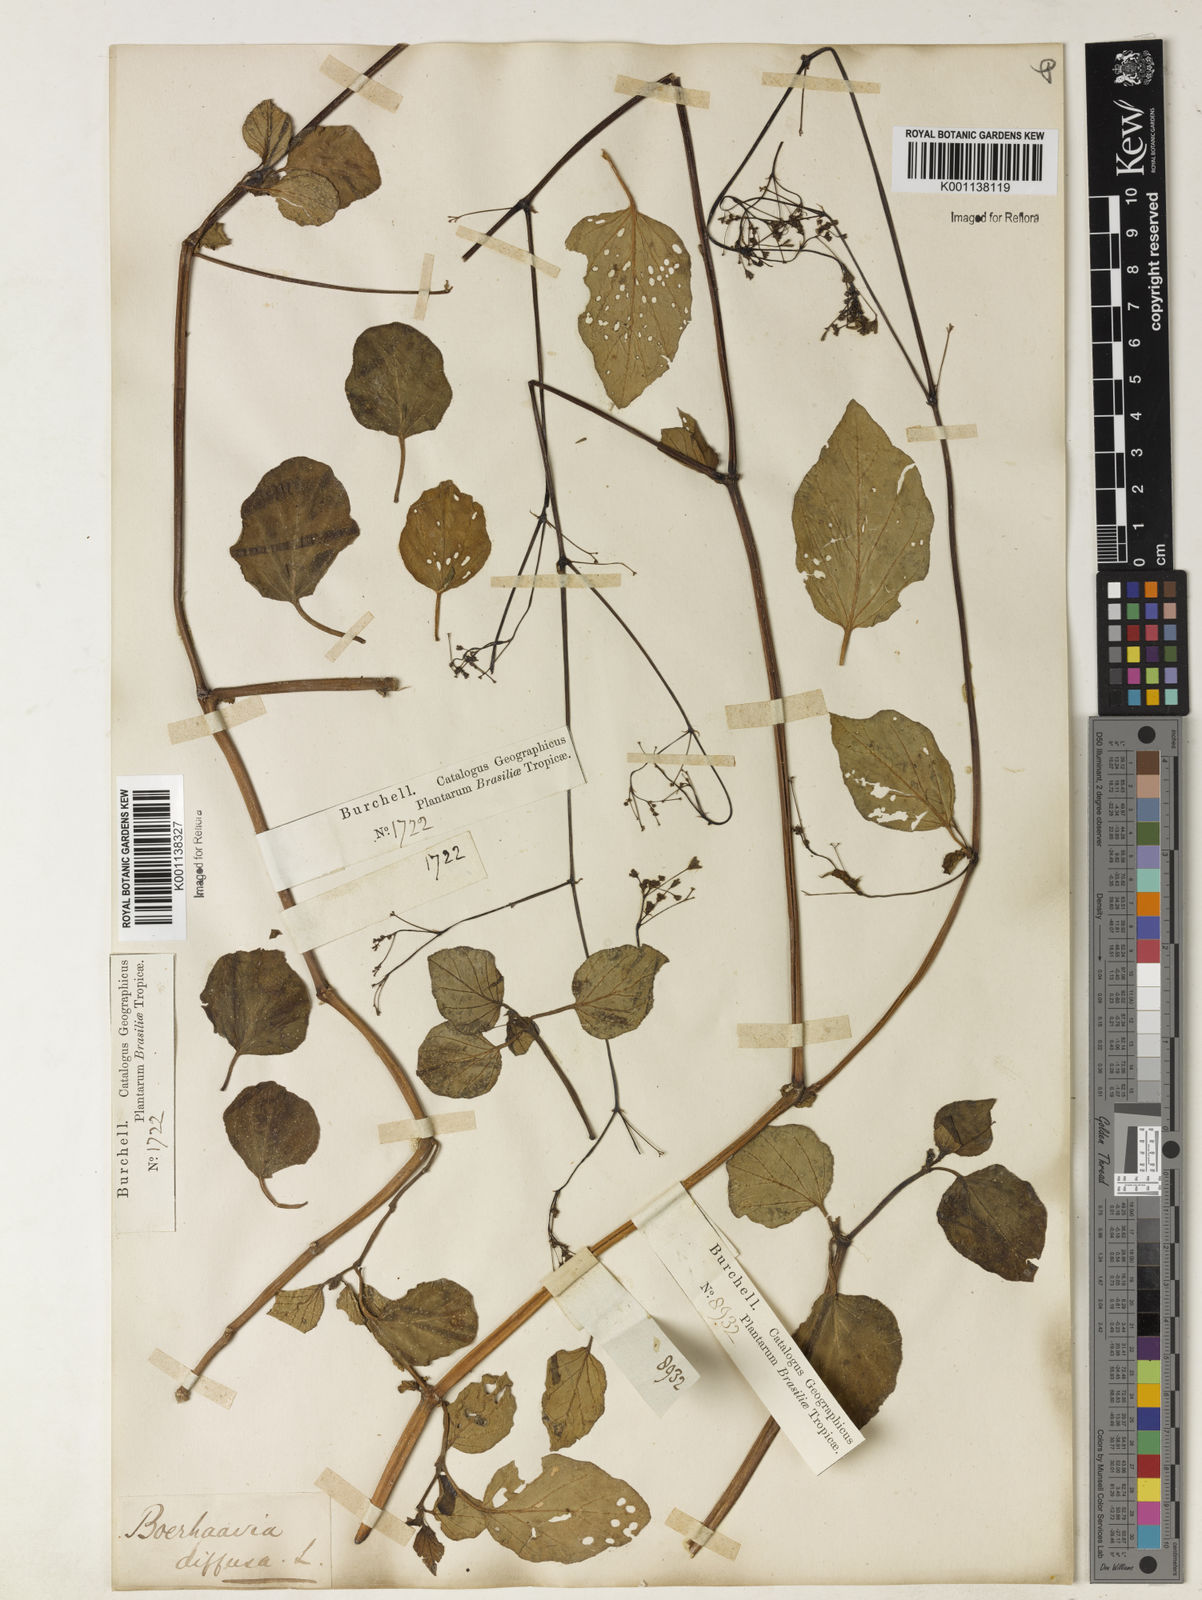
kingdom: Plantae
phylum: Tracheophyta
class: Magnoliopsida
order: Caryophyllales
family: Nyctaginaceae
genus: Boerhavia
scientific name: Boerhavia diffusa
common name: Red spiderling
